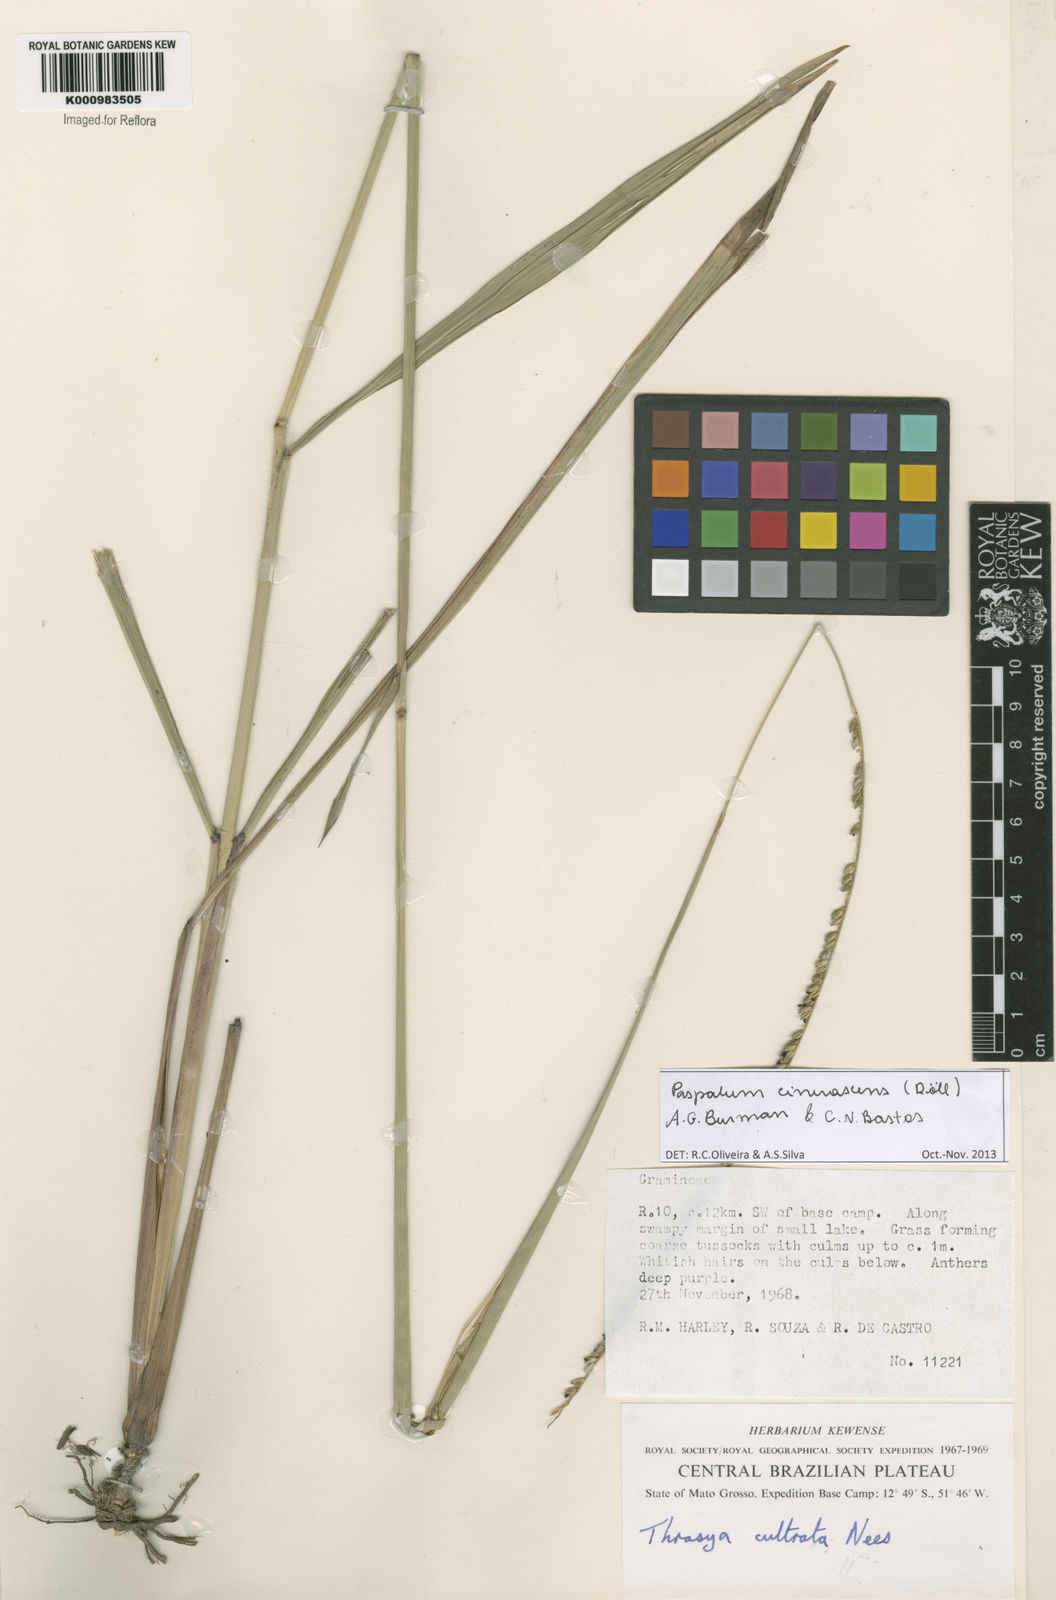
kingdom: Plantae
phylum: Tracheophyta
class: Liliopsida
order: Poales
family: Poaceae
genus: Paspalum
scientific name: Paspalum
